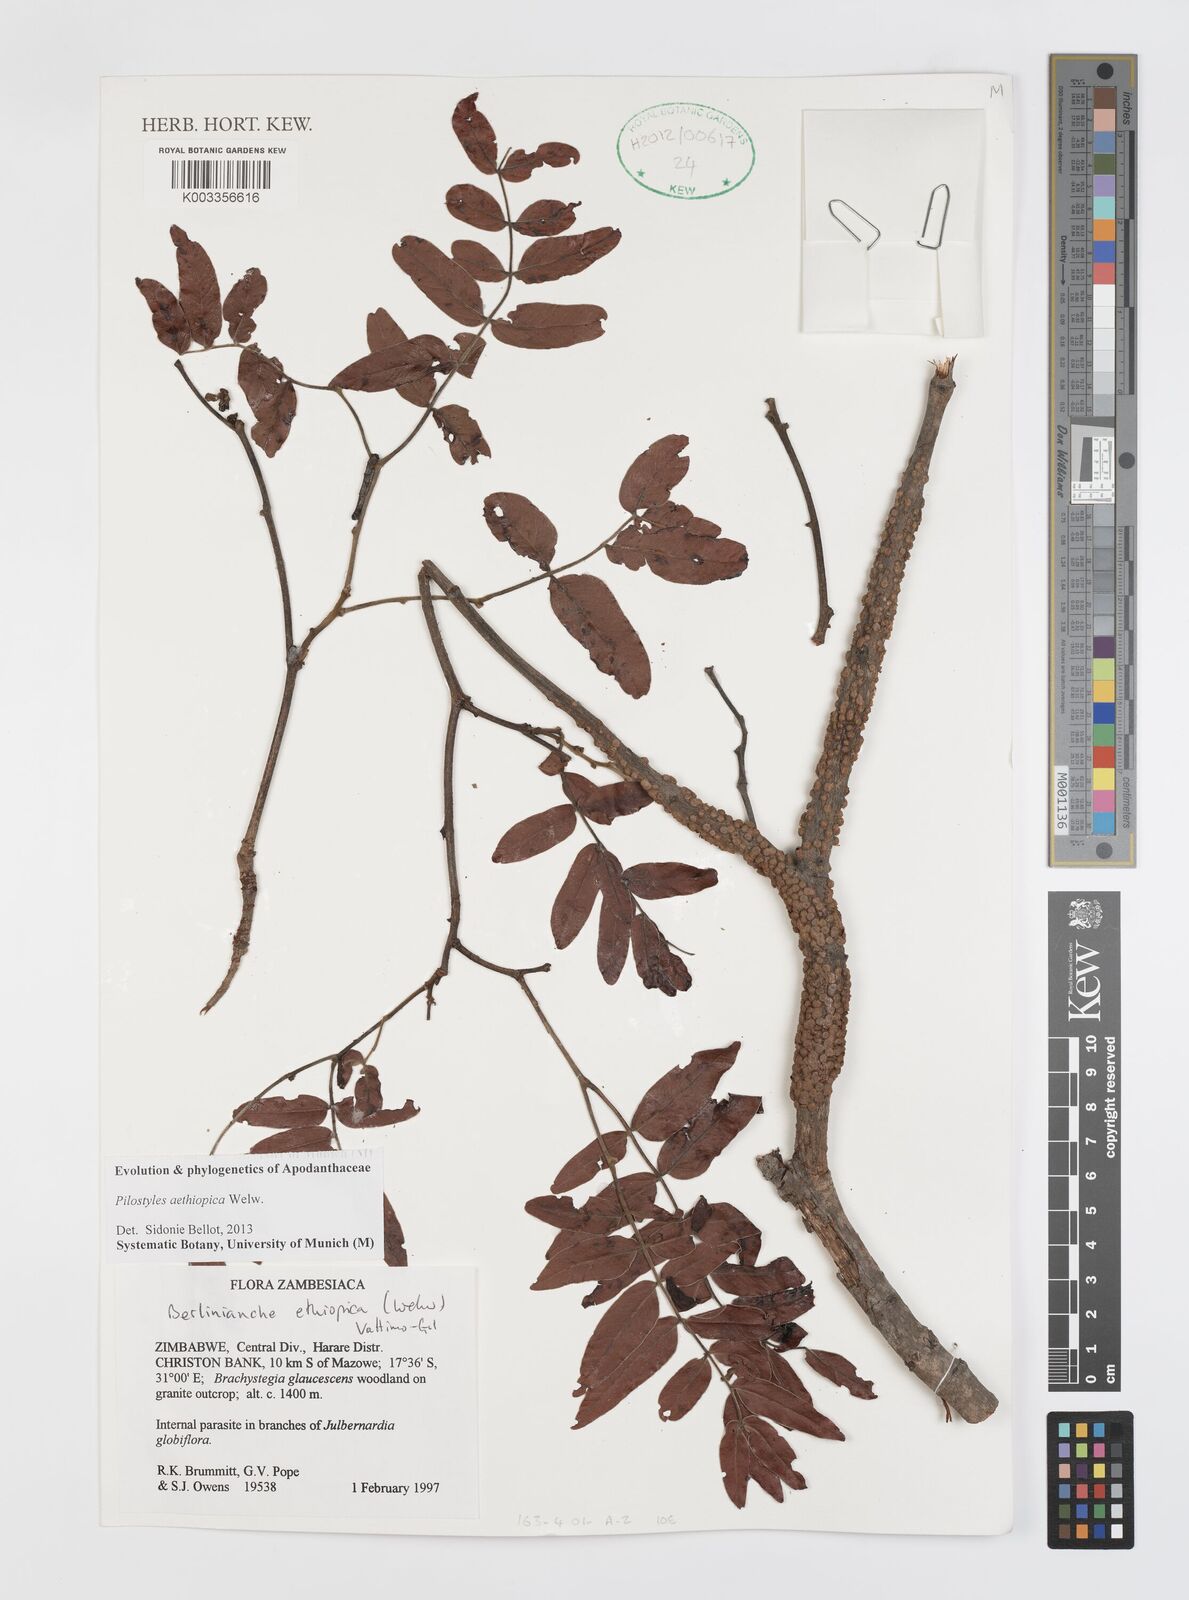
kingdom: Plantae
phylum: Tracheophyta
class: Magnoliopsida
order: Cucurbitales
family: Apodanthaceae
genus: Pilostyles
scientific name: Pilostyles aethiopica
